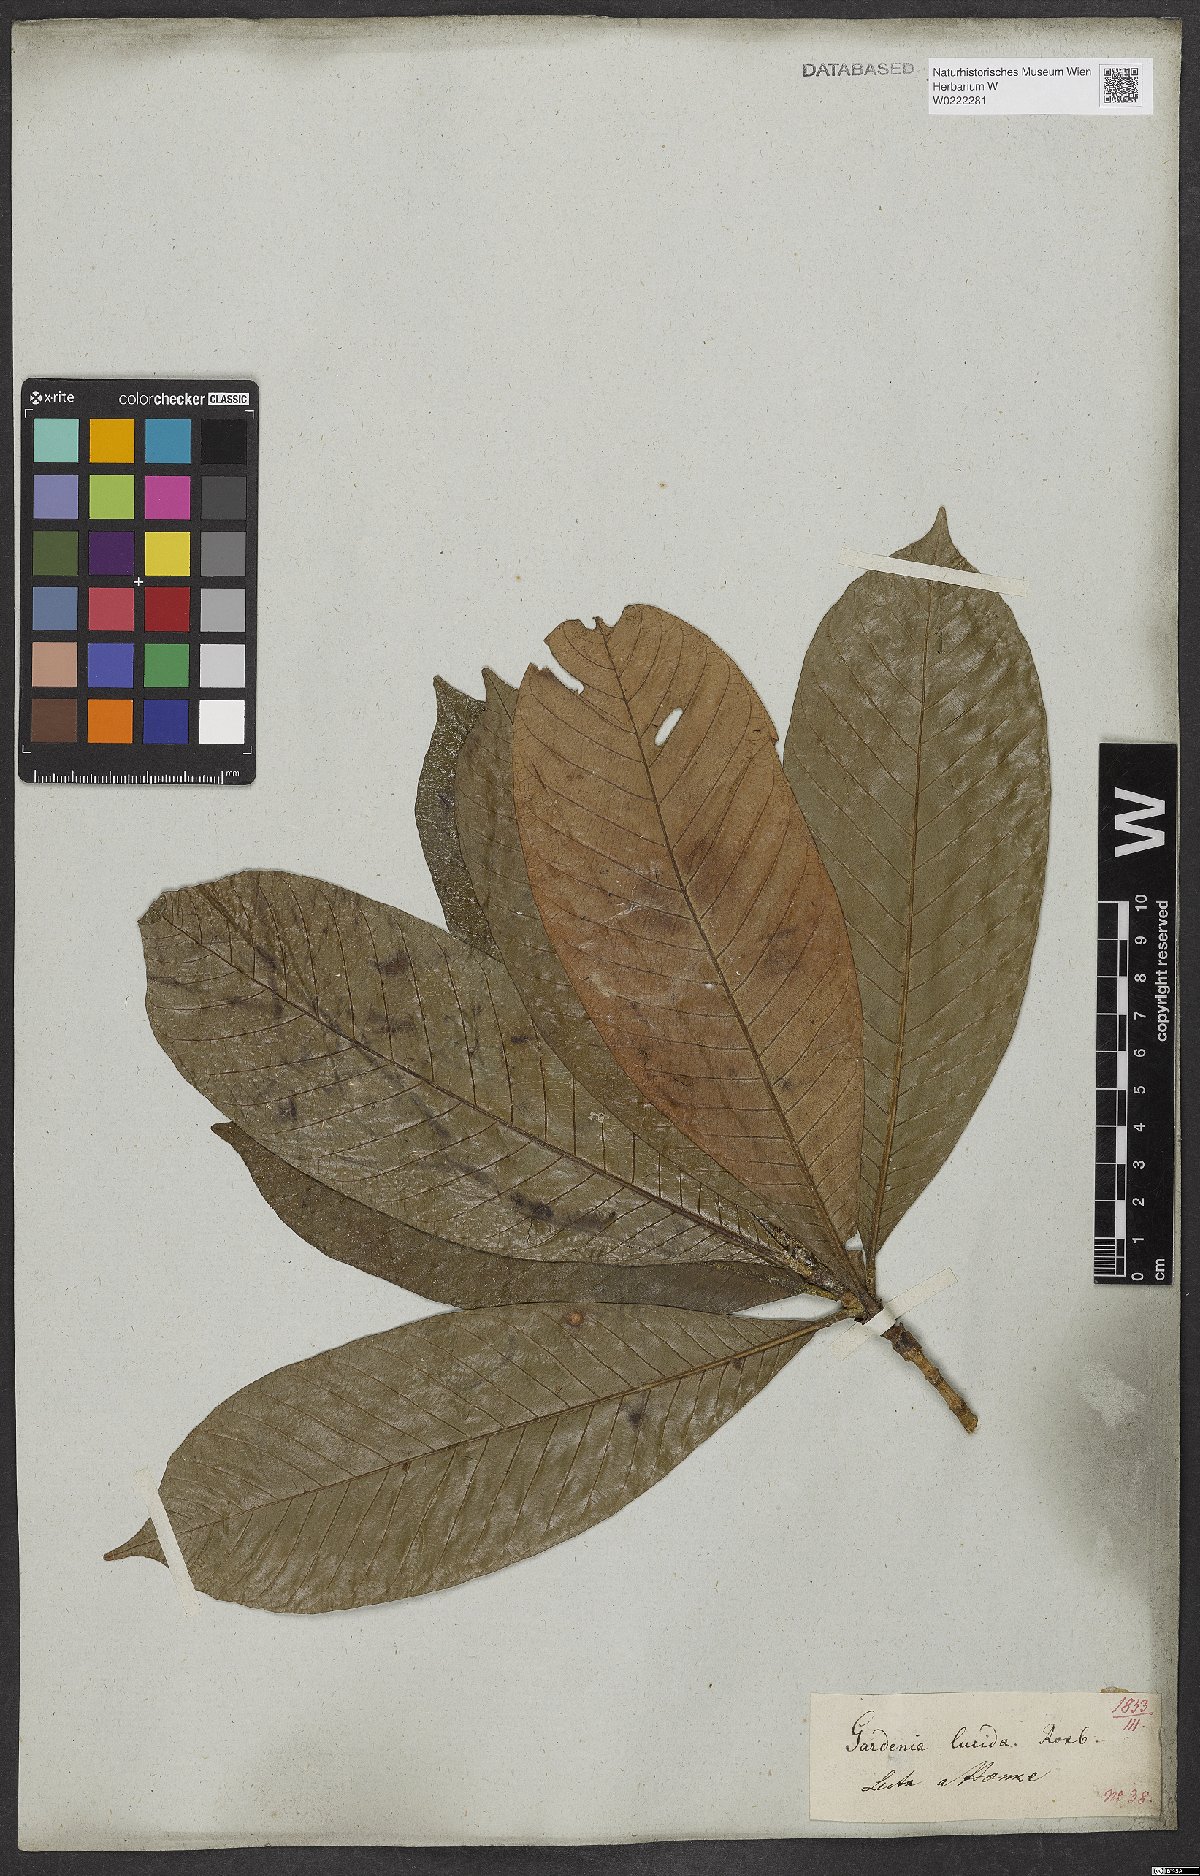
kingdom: Plantae
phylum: Tracheophyta
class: Magnoliopsida
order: Gentianales
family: Rubiaceae
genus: Gardenia
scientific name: Gardenia resinifera
